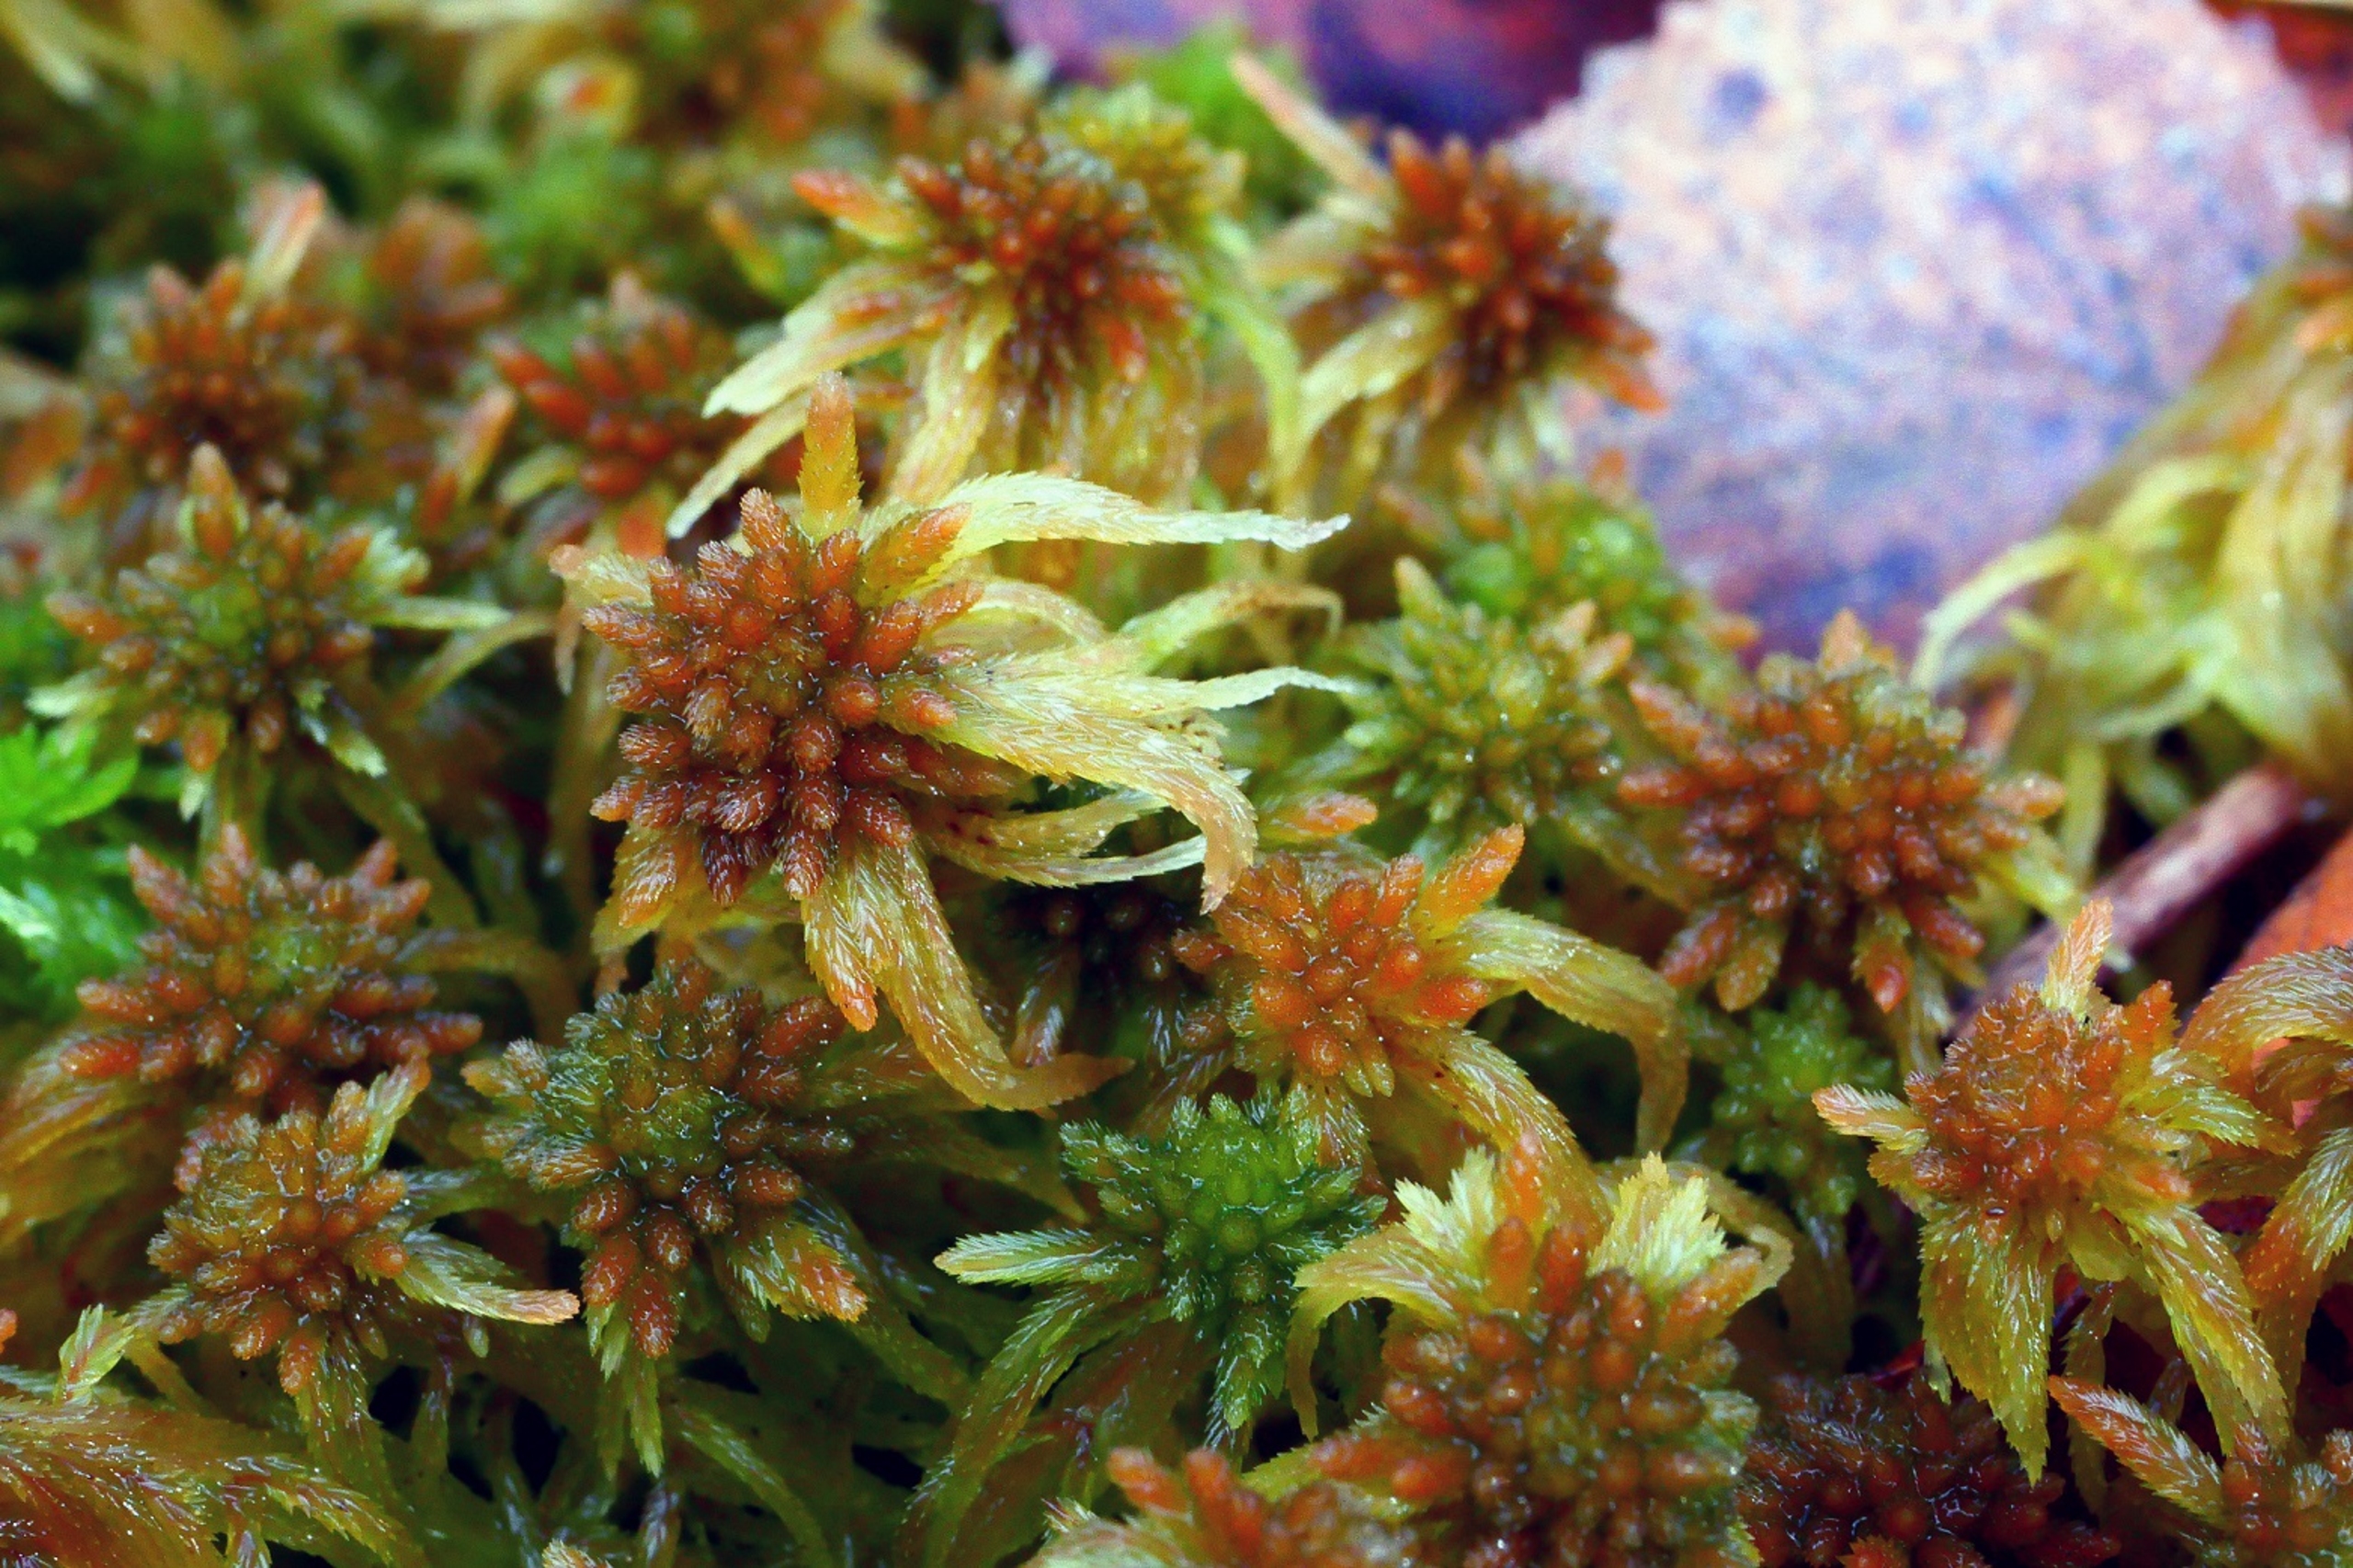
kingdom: Plantae
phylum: Bryophyta
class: Sphagnopsida
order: Sphagnales
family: Sphagnaceae
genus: Sphagnum
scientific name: Sphagnum angustifolium
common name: Rødgrenet tørvemos
